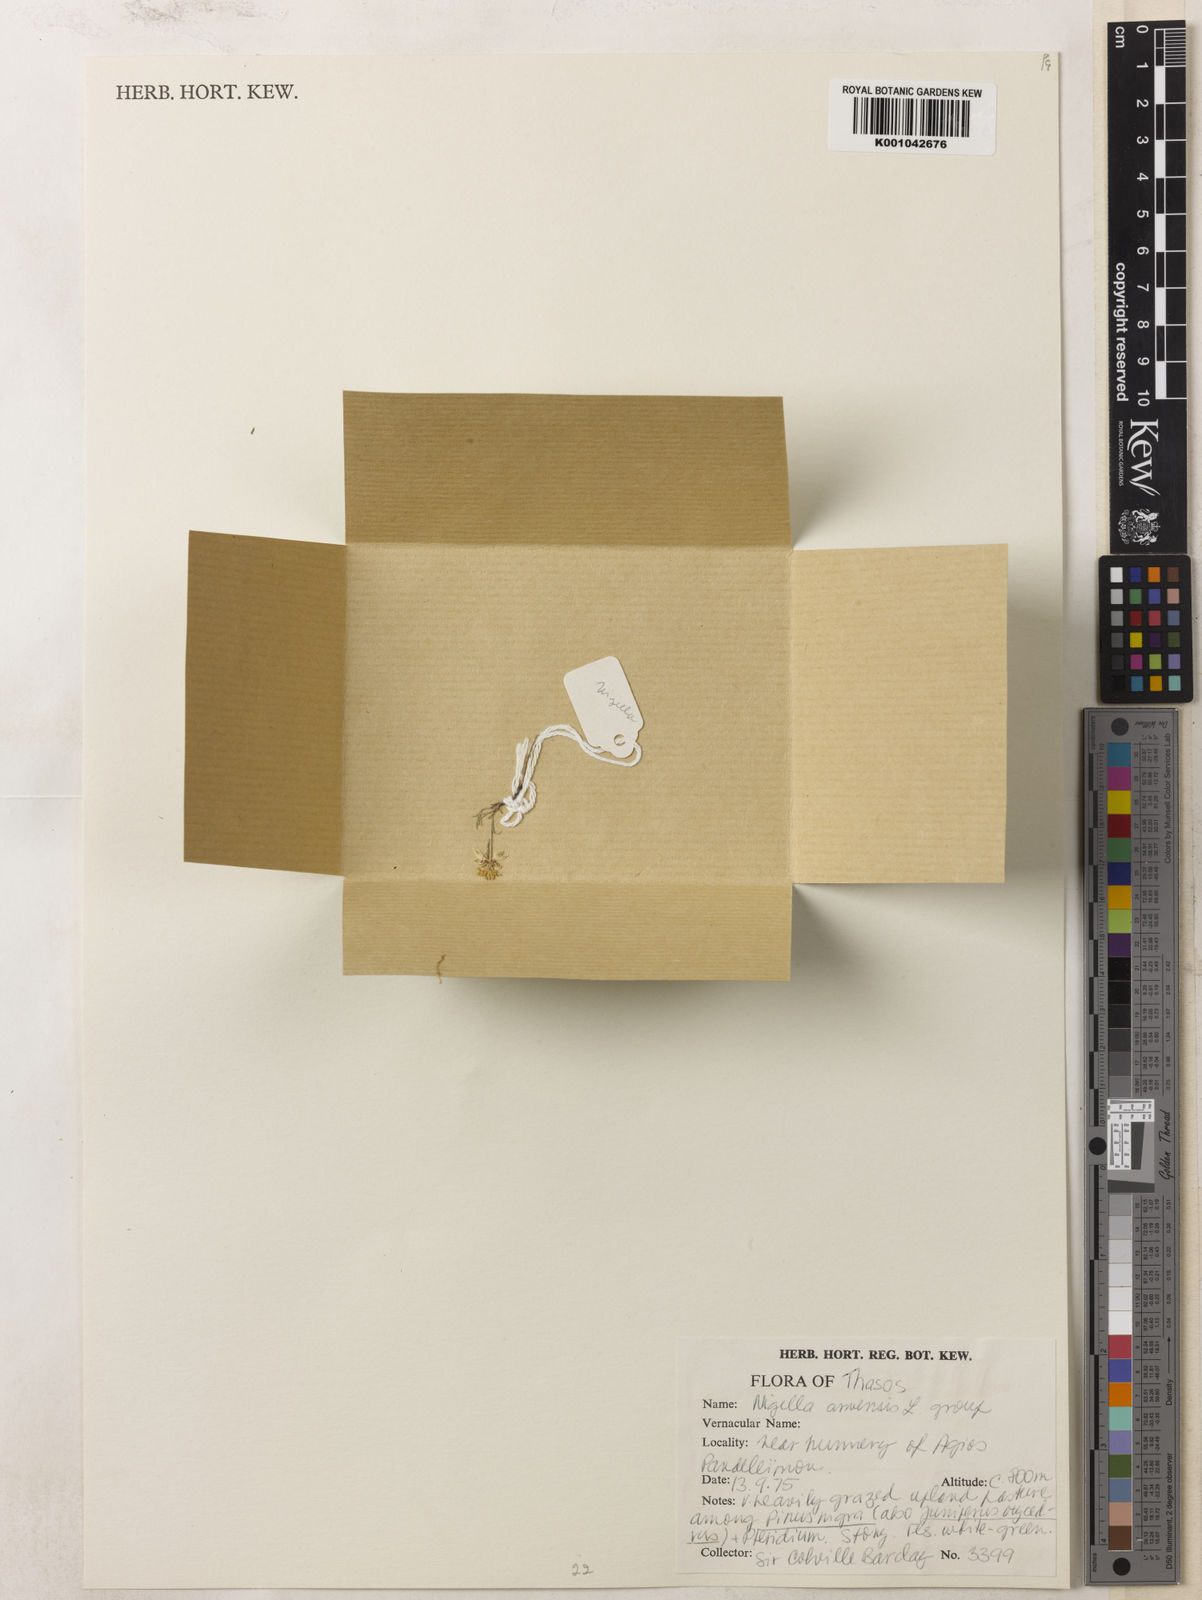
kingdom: Plantae
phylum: Tracheophyta
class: Magnoliopsida
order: Ranunculales
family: Ranunculaceae
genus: Nigella
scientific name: Nigella arvensis
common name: Wild fennel-flower
